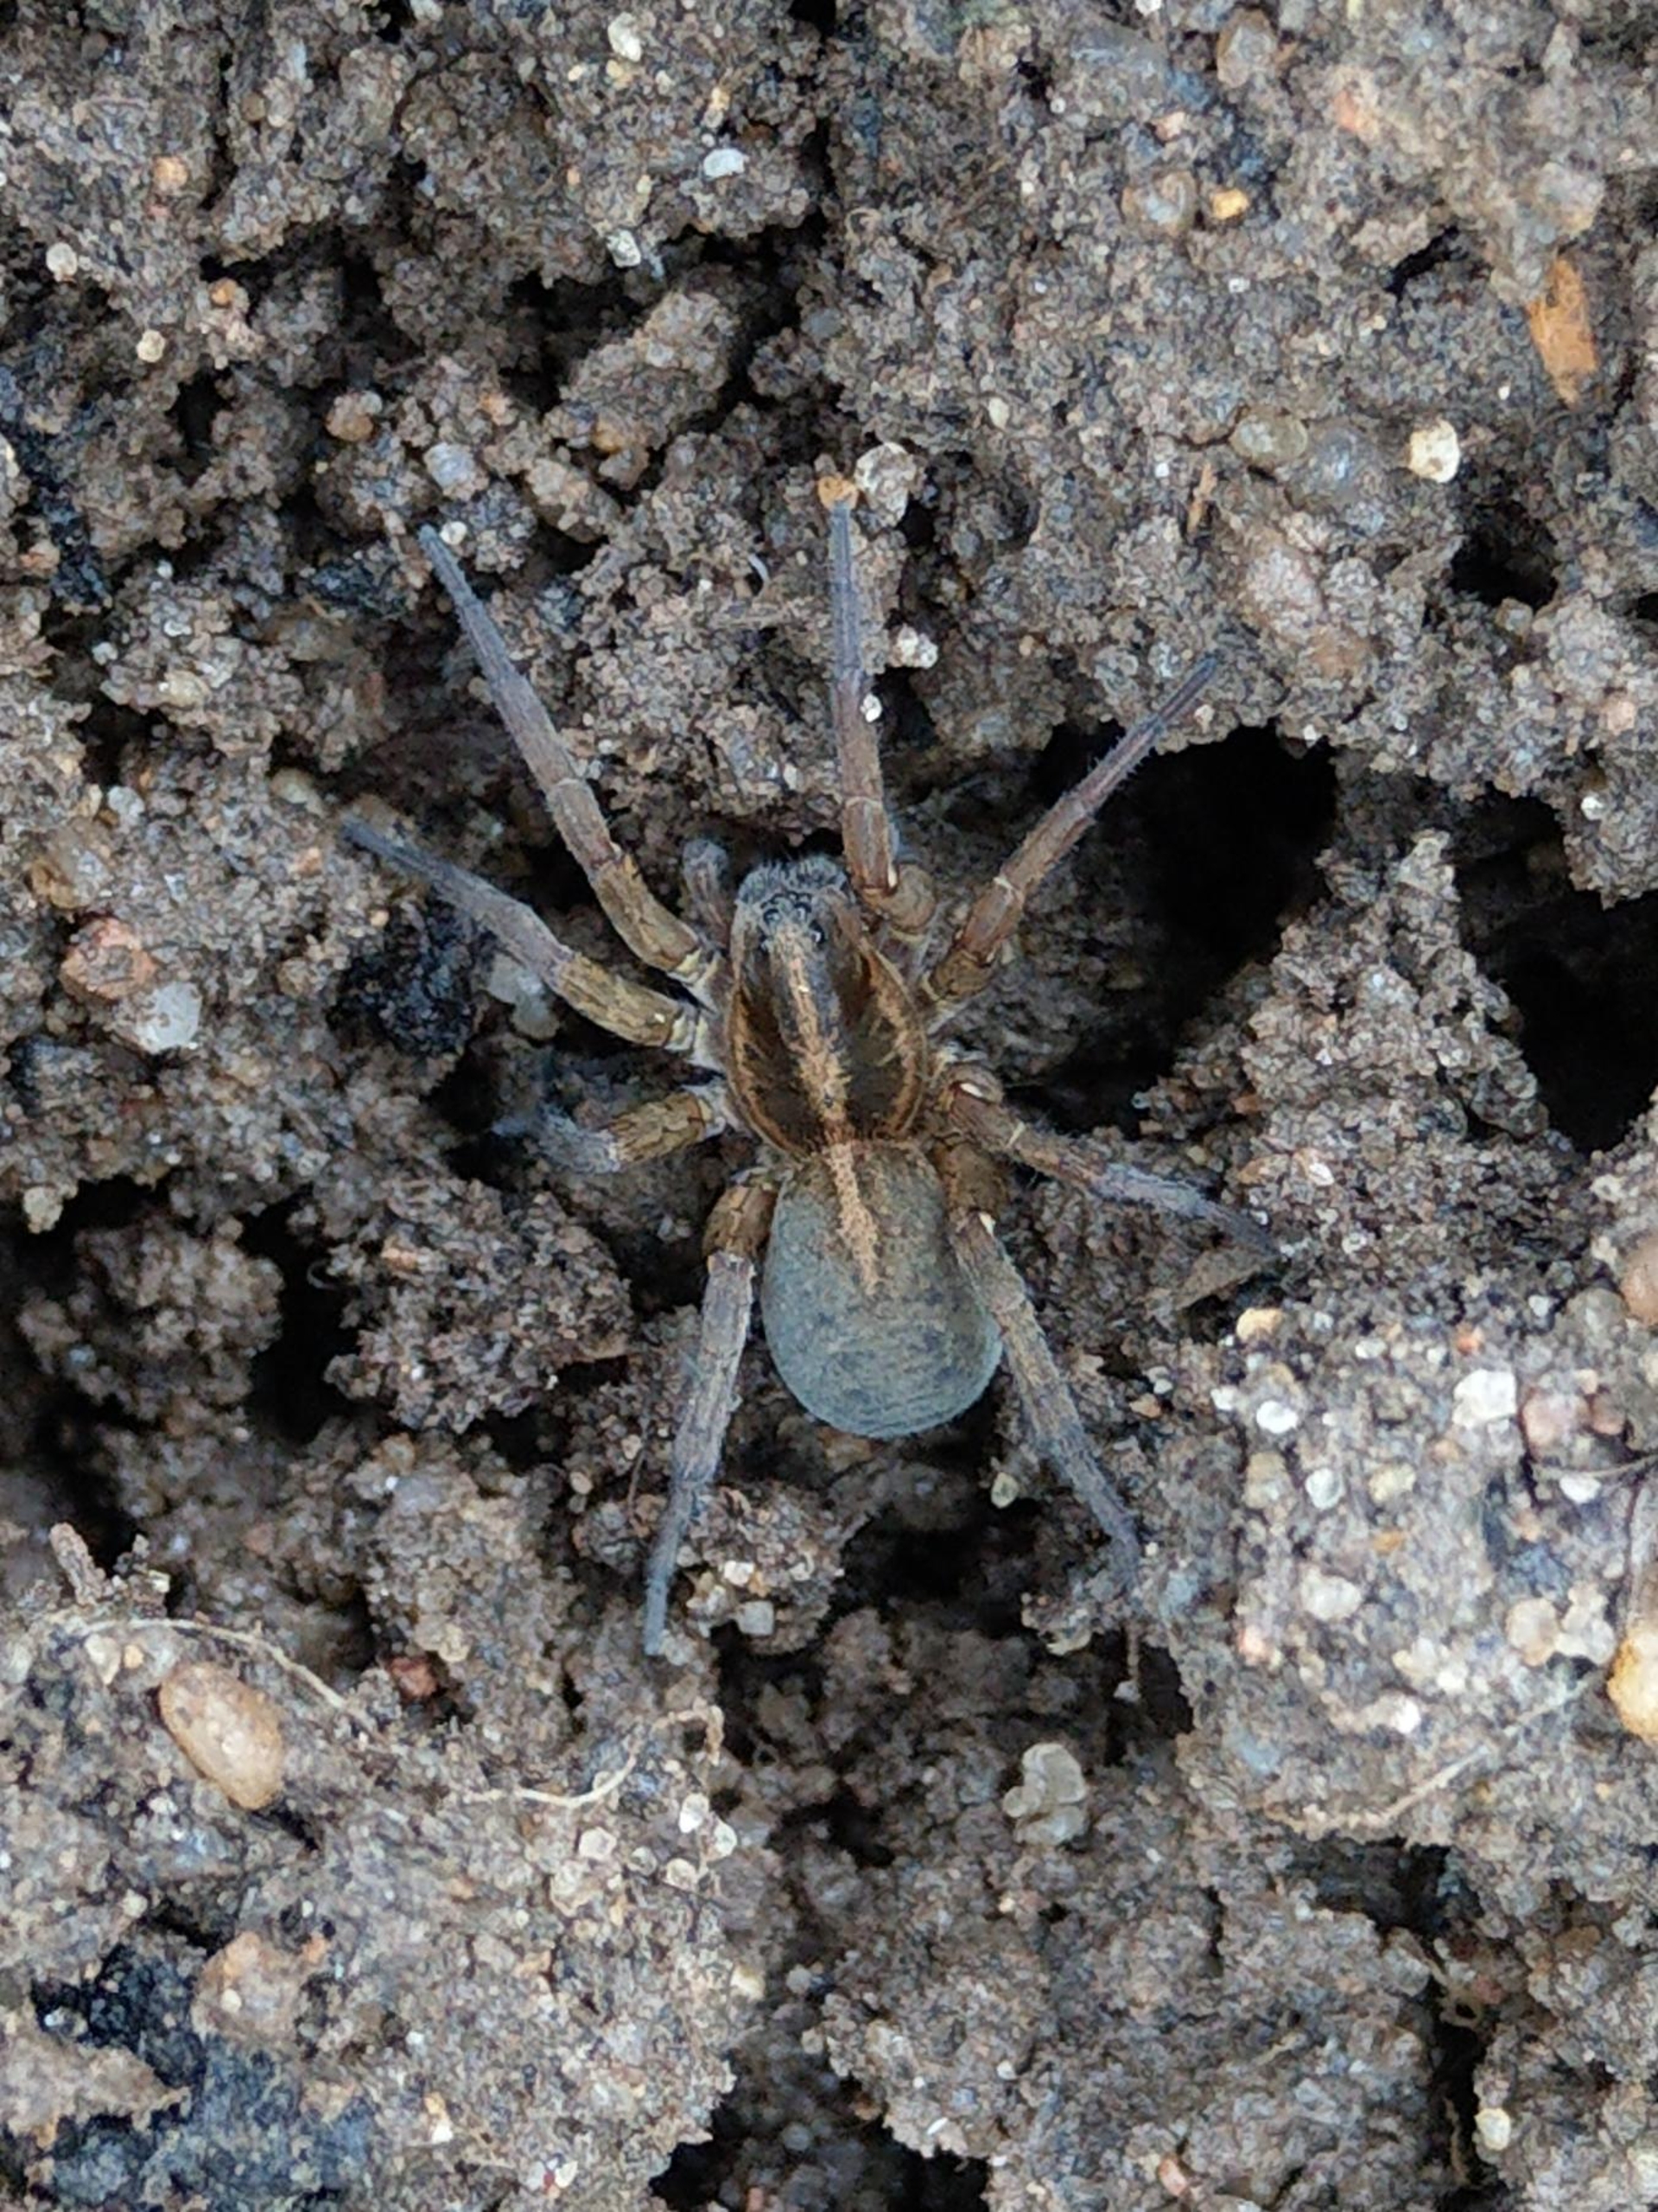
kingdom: Animalia
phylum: Arthropoda
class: Arachnida
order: Araneae
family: Lycosidae
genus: Trochosa
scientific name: Trochosa ruricola
